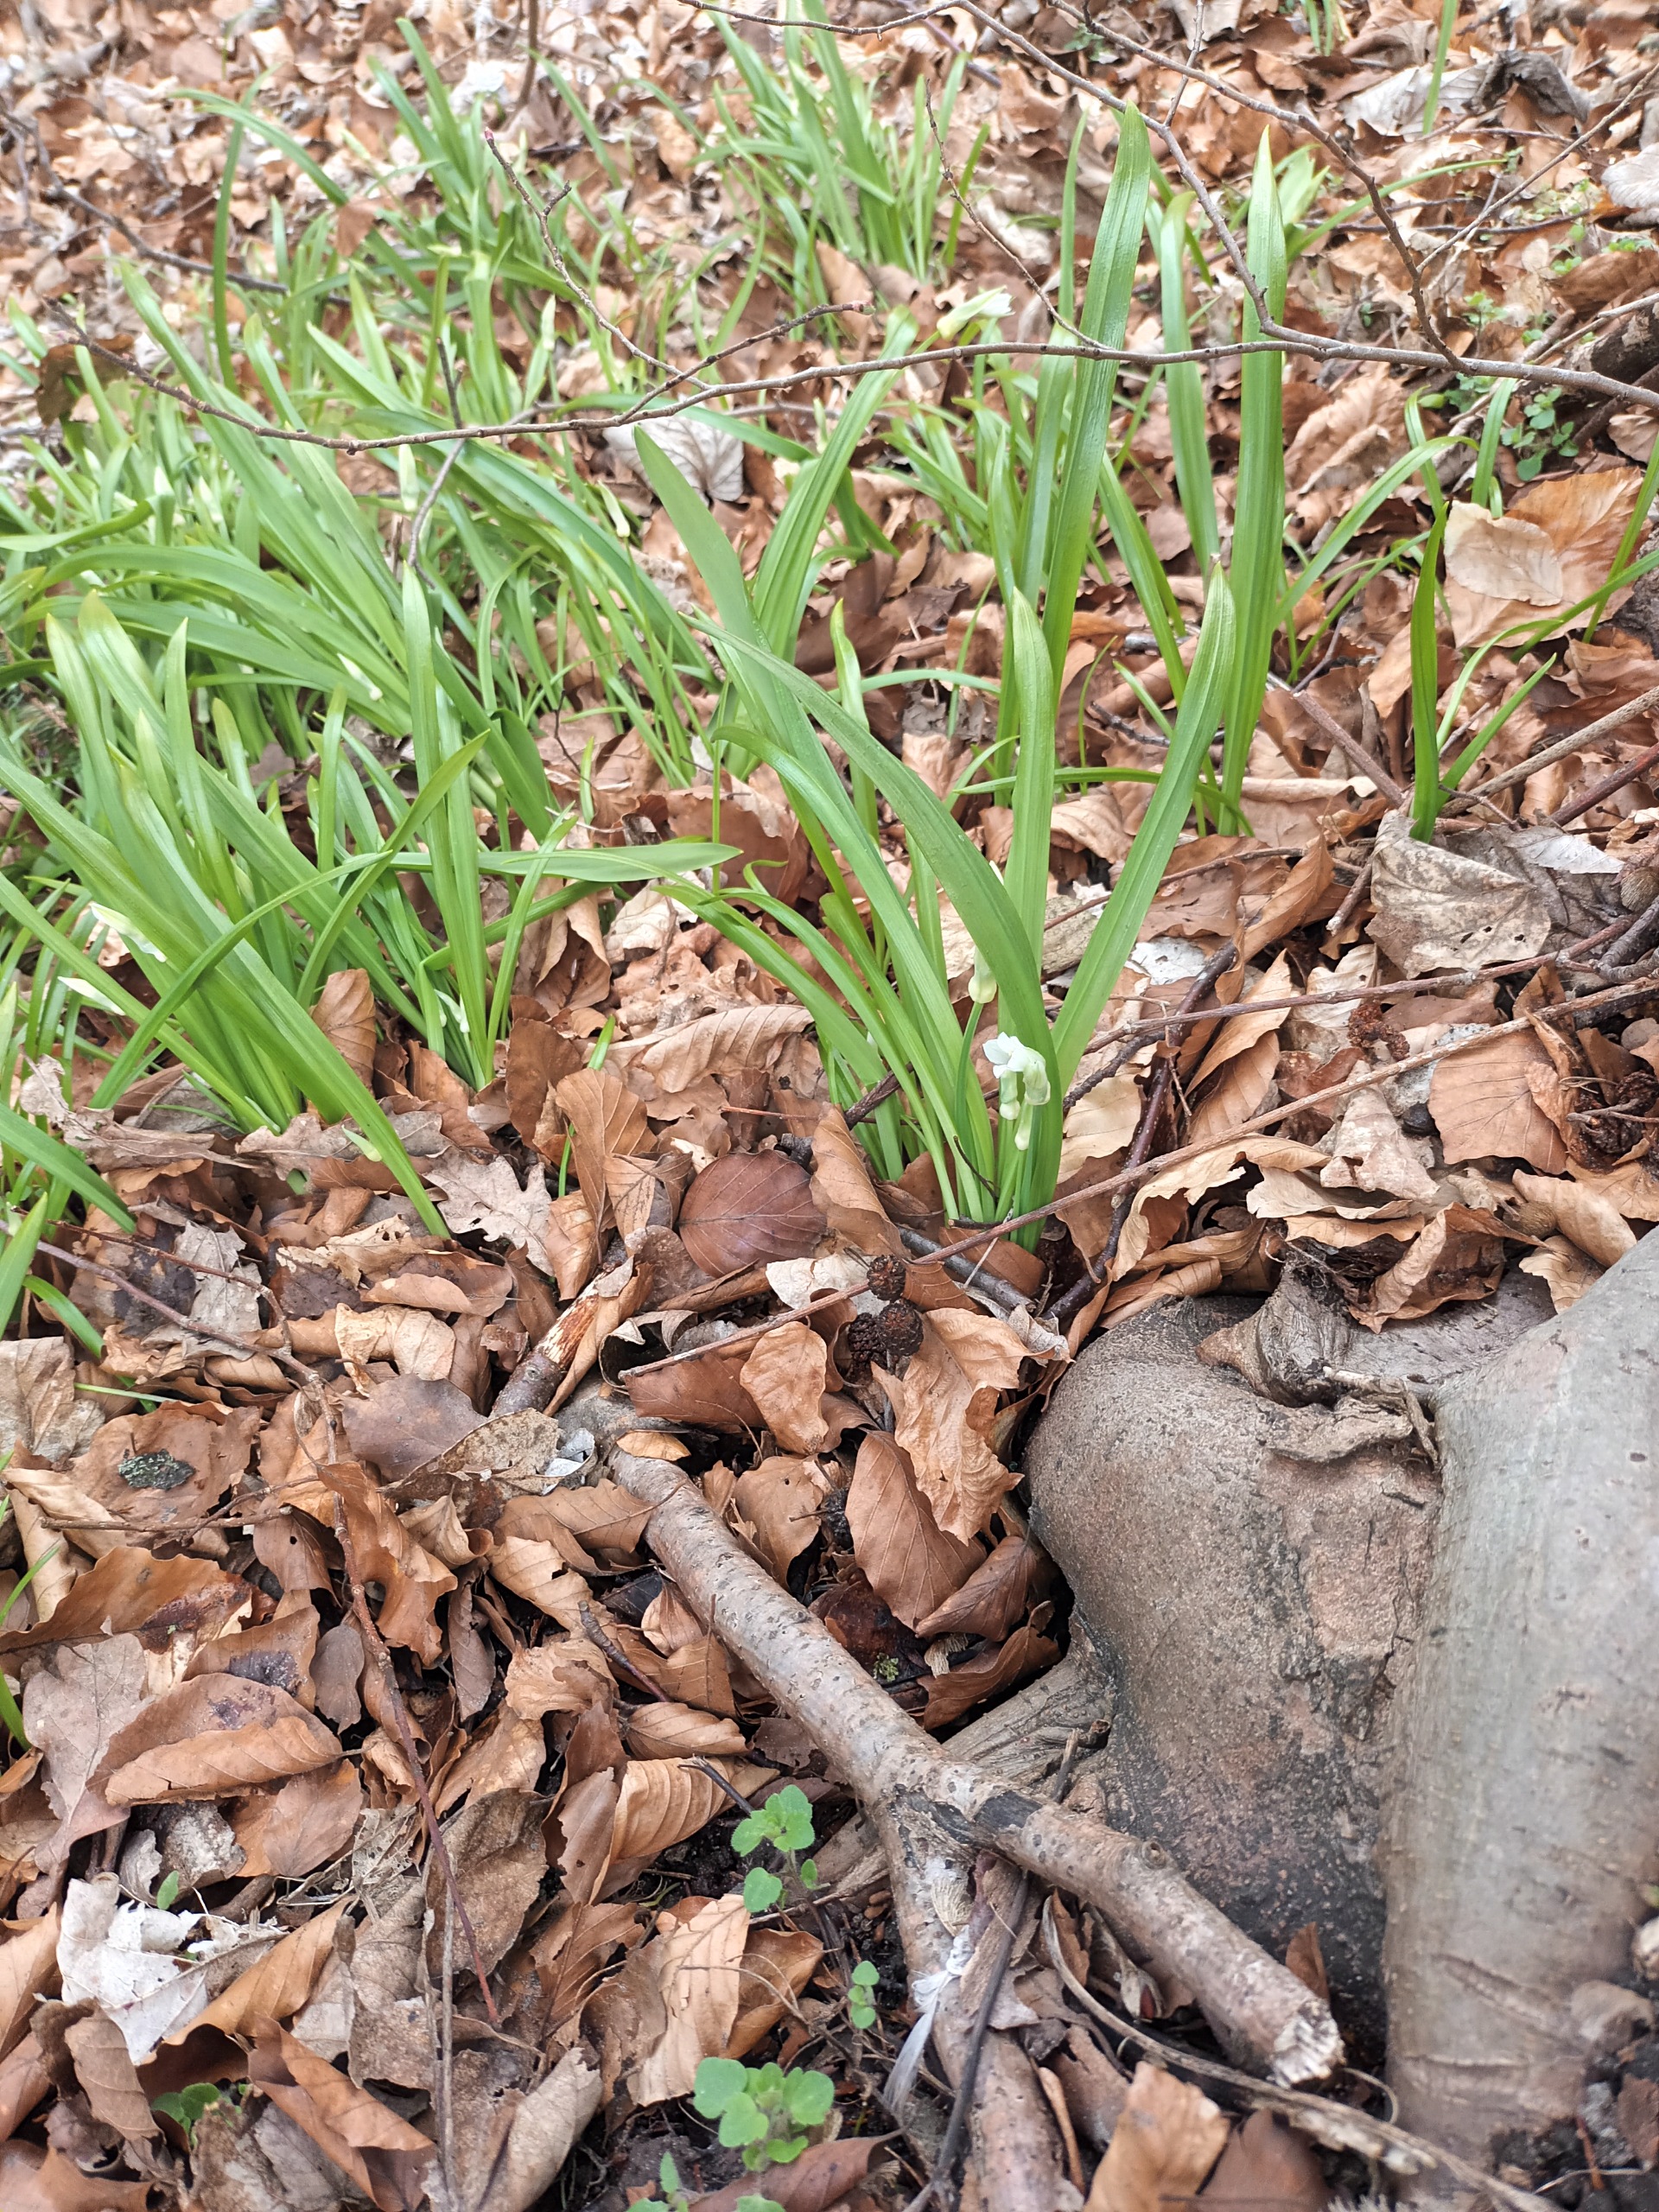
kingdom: Plantae
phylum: Tracheophyta
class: Liliopsida
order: Asparagales
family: Amaryllidaceae
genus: Allium
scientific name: Allium paradoxum
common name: Spøjs løg
